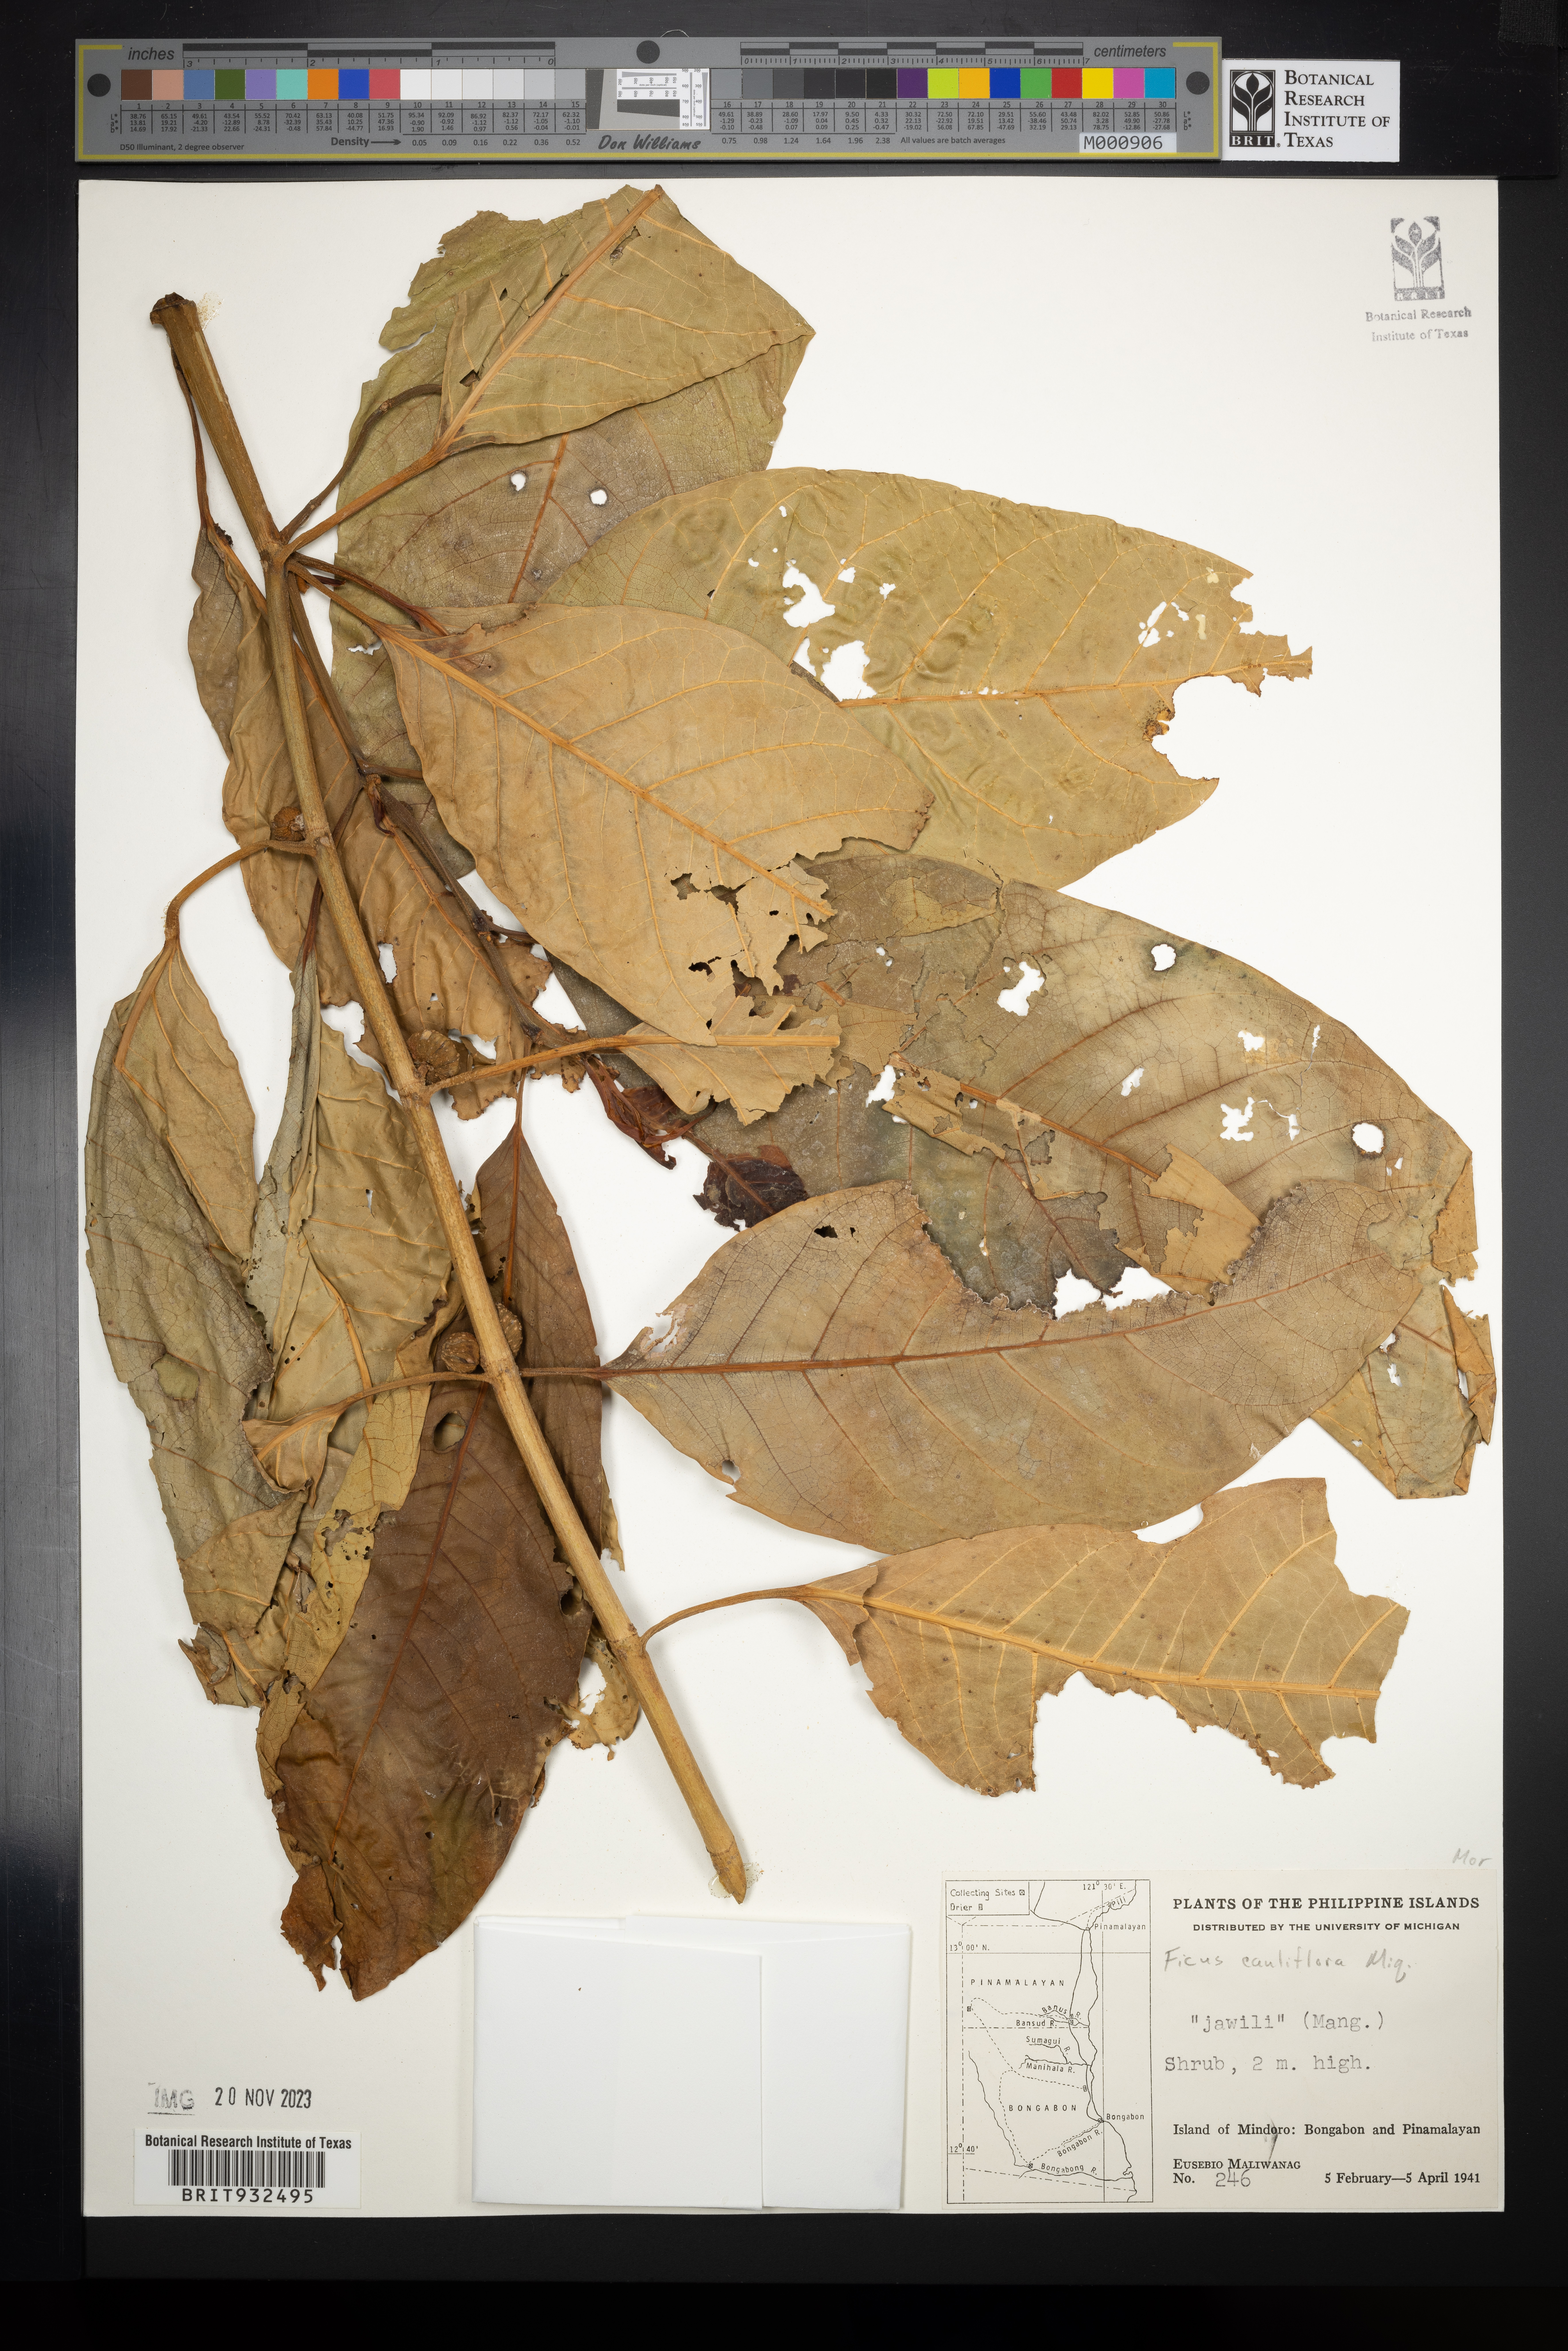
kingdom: Plantae
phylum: Tracheophyta
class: Magnoliopsida
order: Rosales
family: Moraceae
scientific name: Moraceae
